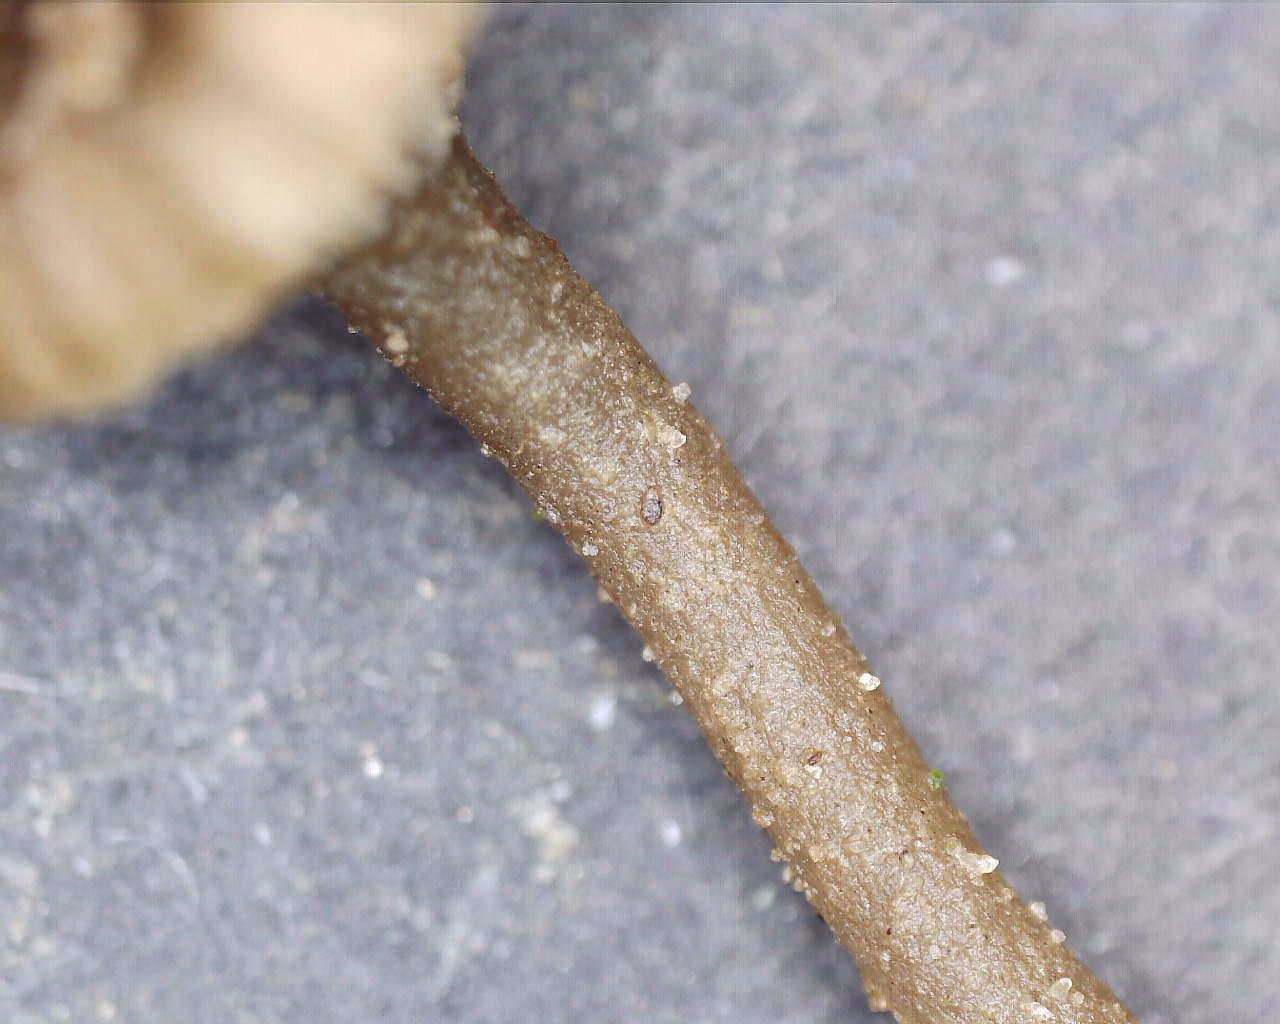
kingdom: Fungi
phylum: Basidiomycota
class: Agaricomycetes
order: Agaricales
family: Hygrophoraceae
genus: Arrhenia
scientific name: Arrhenia
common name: fontænehat
